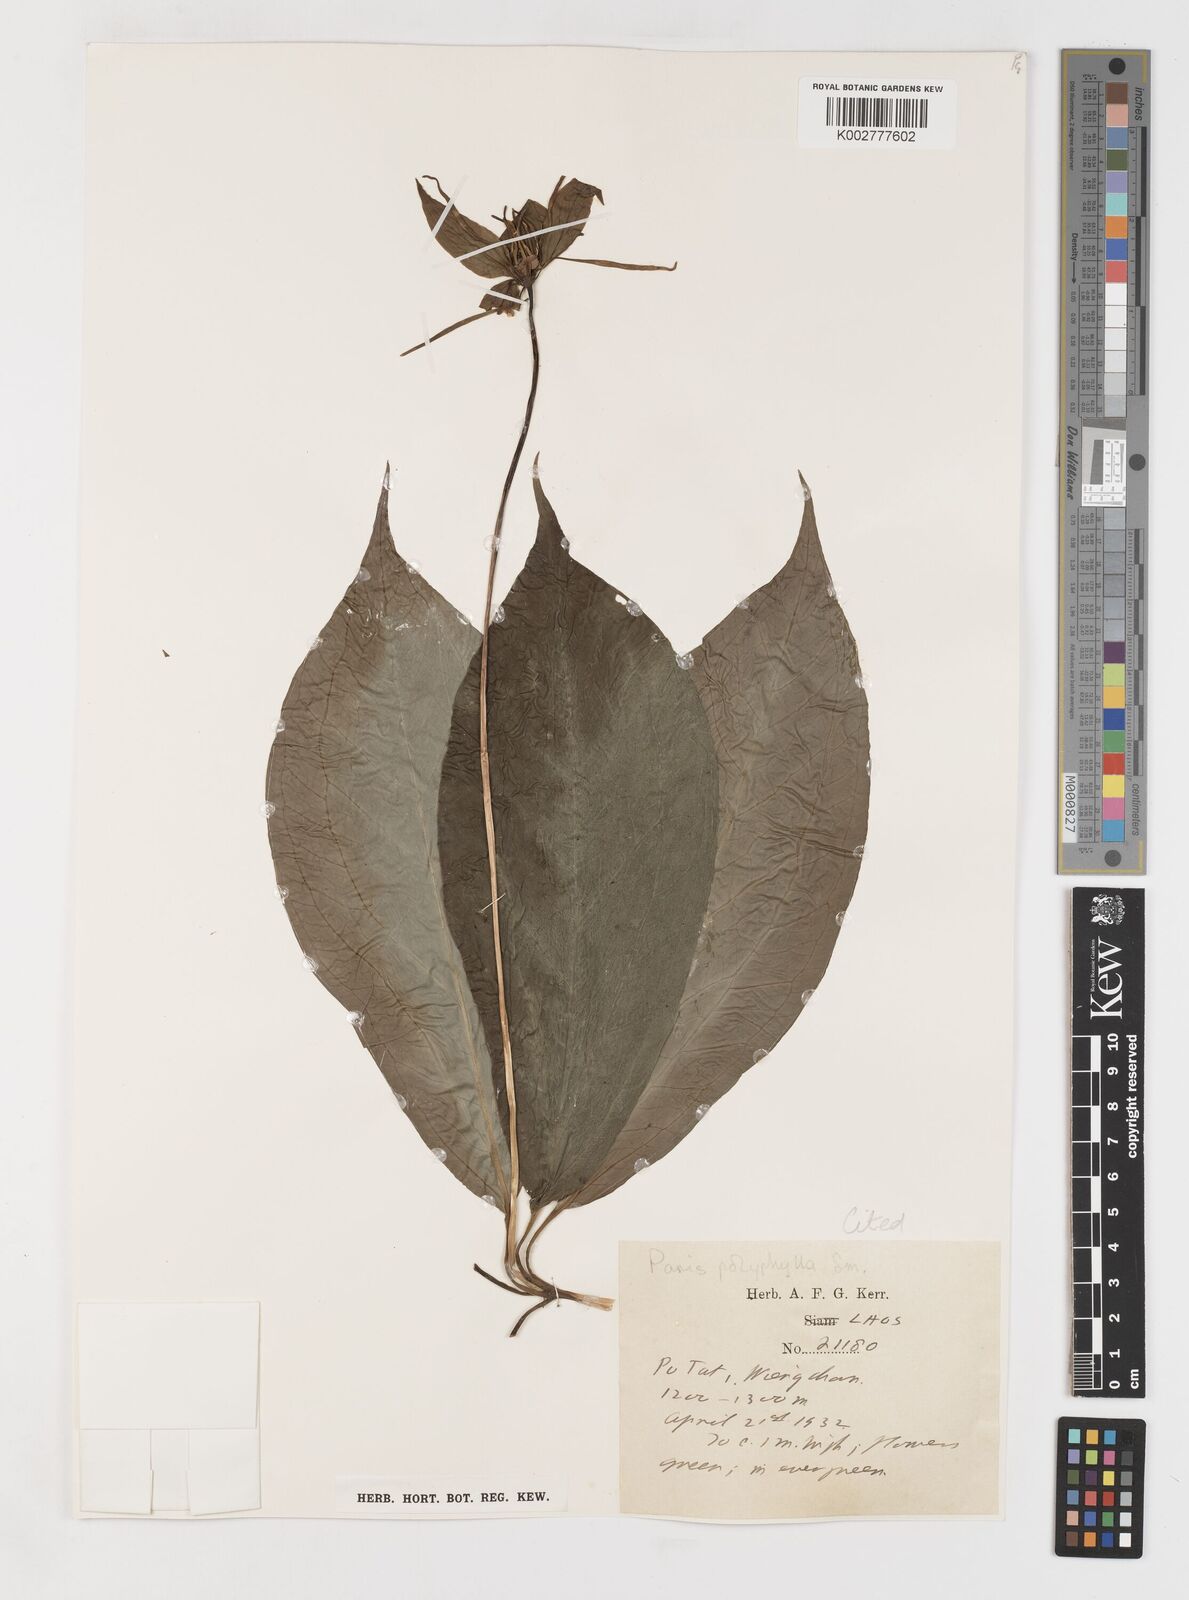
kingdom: Plantae
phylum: Tracheophyta
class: Liliopsida
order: Liliales
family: Melanthiaceae
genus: Paris
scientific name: Paris chinensis
